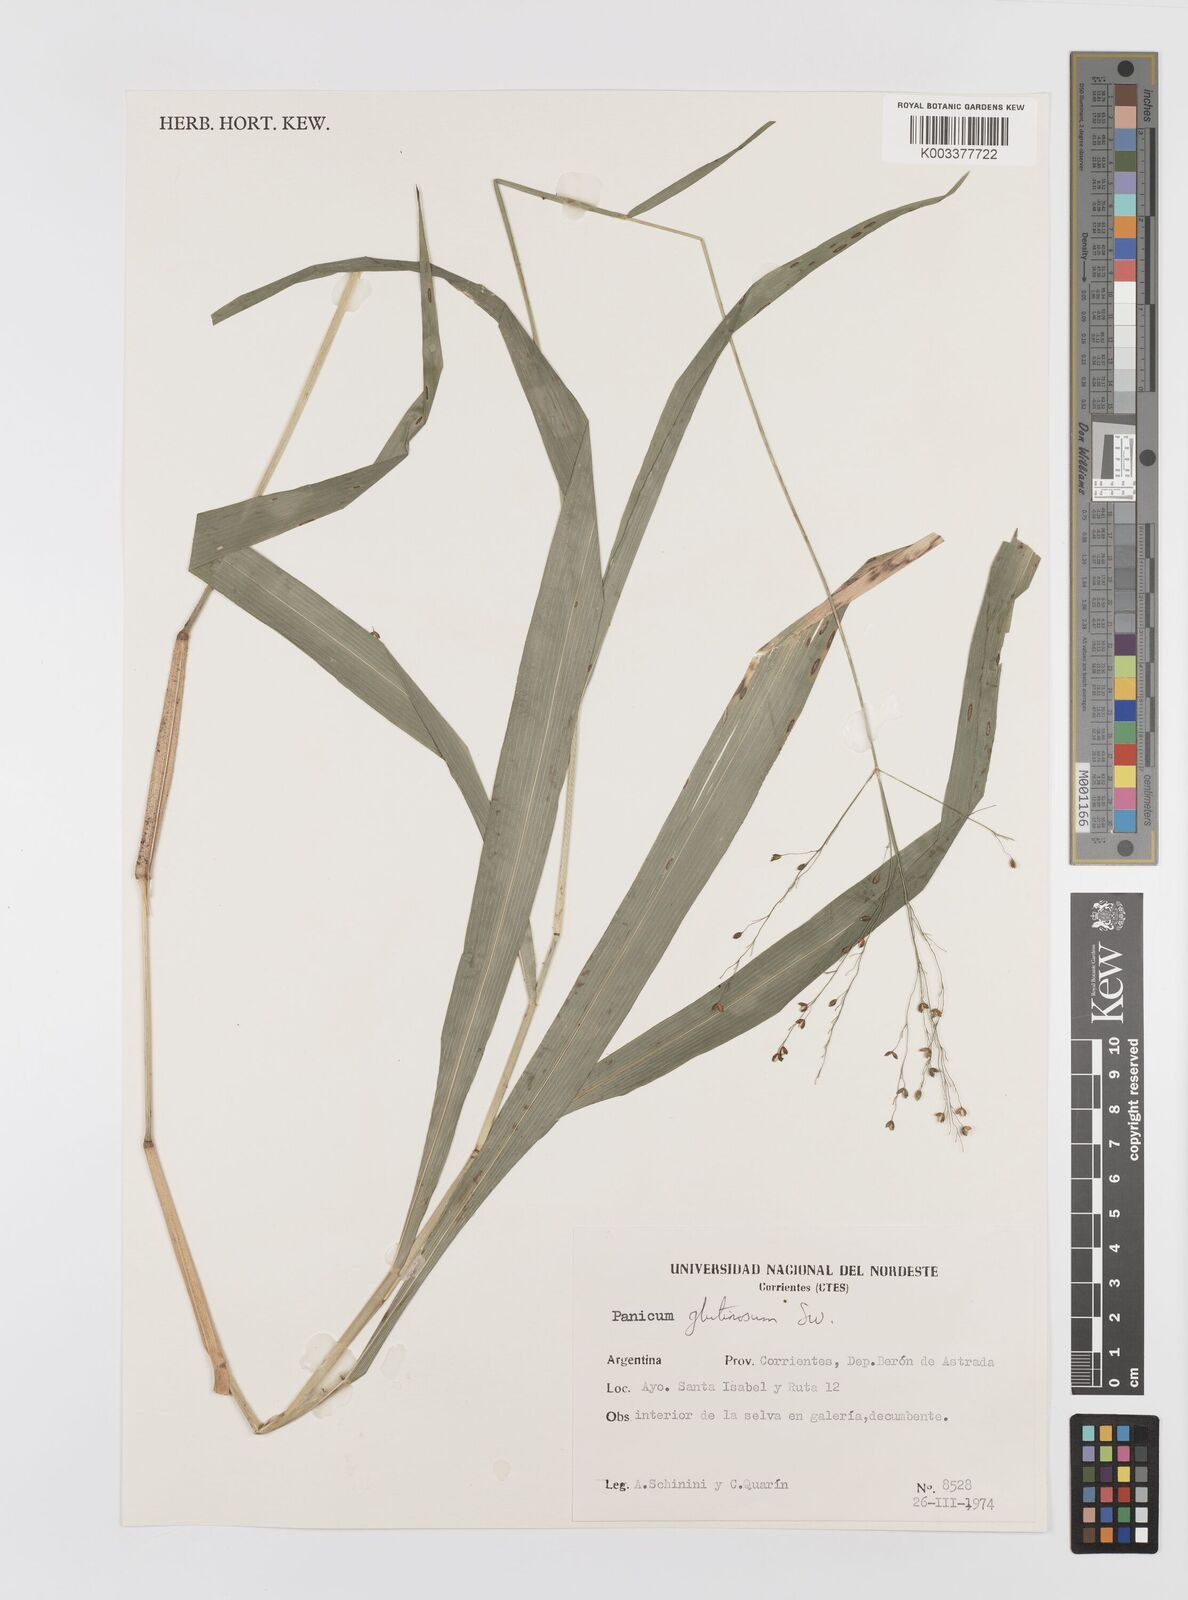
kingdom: Plantae
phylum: Tracheophyta
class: Liliopsida
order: Poales
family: Poaceae
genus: Homolepis
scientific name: Homolepis glutinosa
